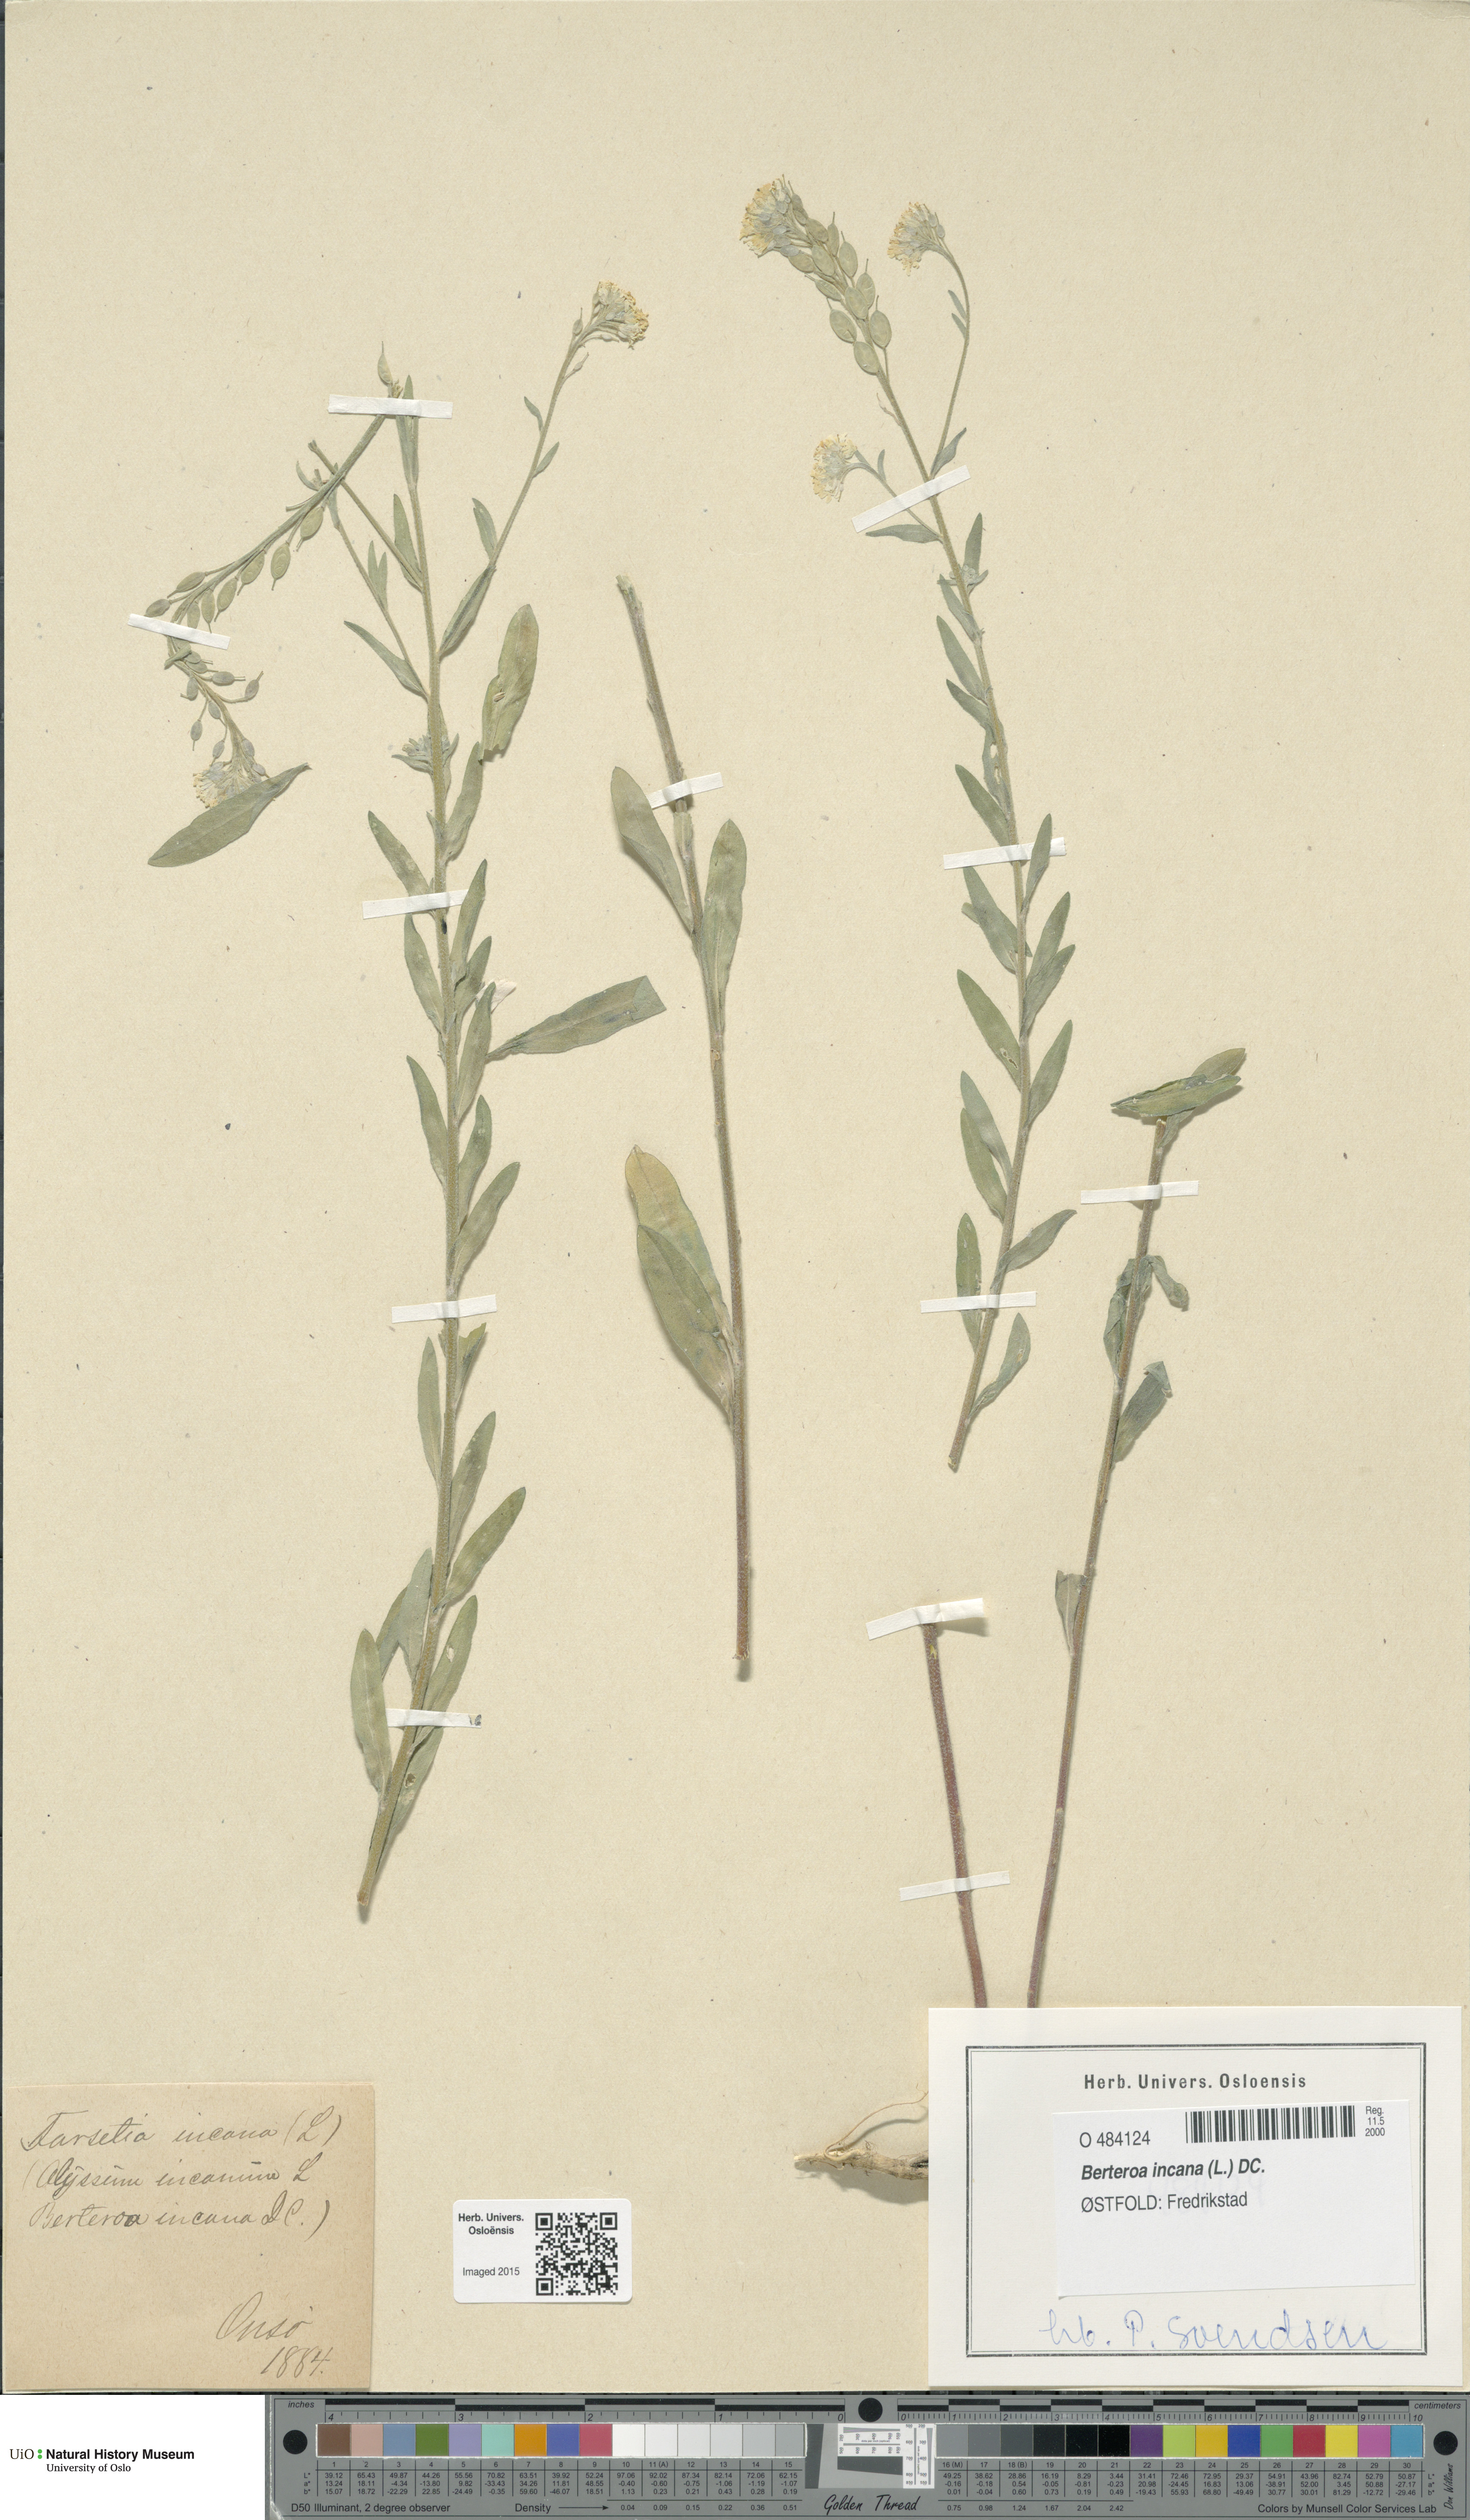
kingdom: Plantae
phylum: Tracheophyta
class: Magnoliopsida
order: Brassicales
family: Brassicaceae
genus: Berteroa
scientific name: Berteroa incana
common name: Hoary alison
